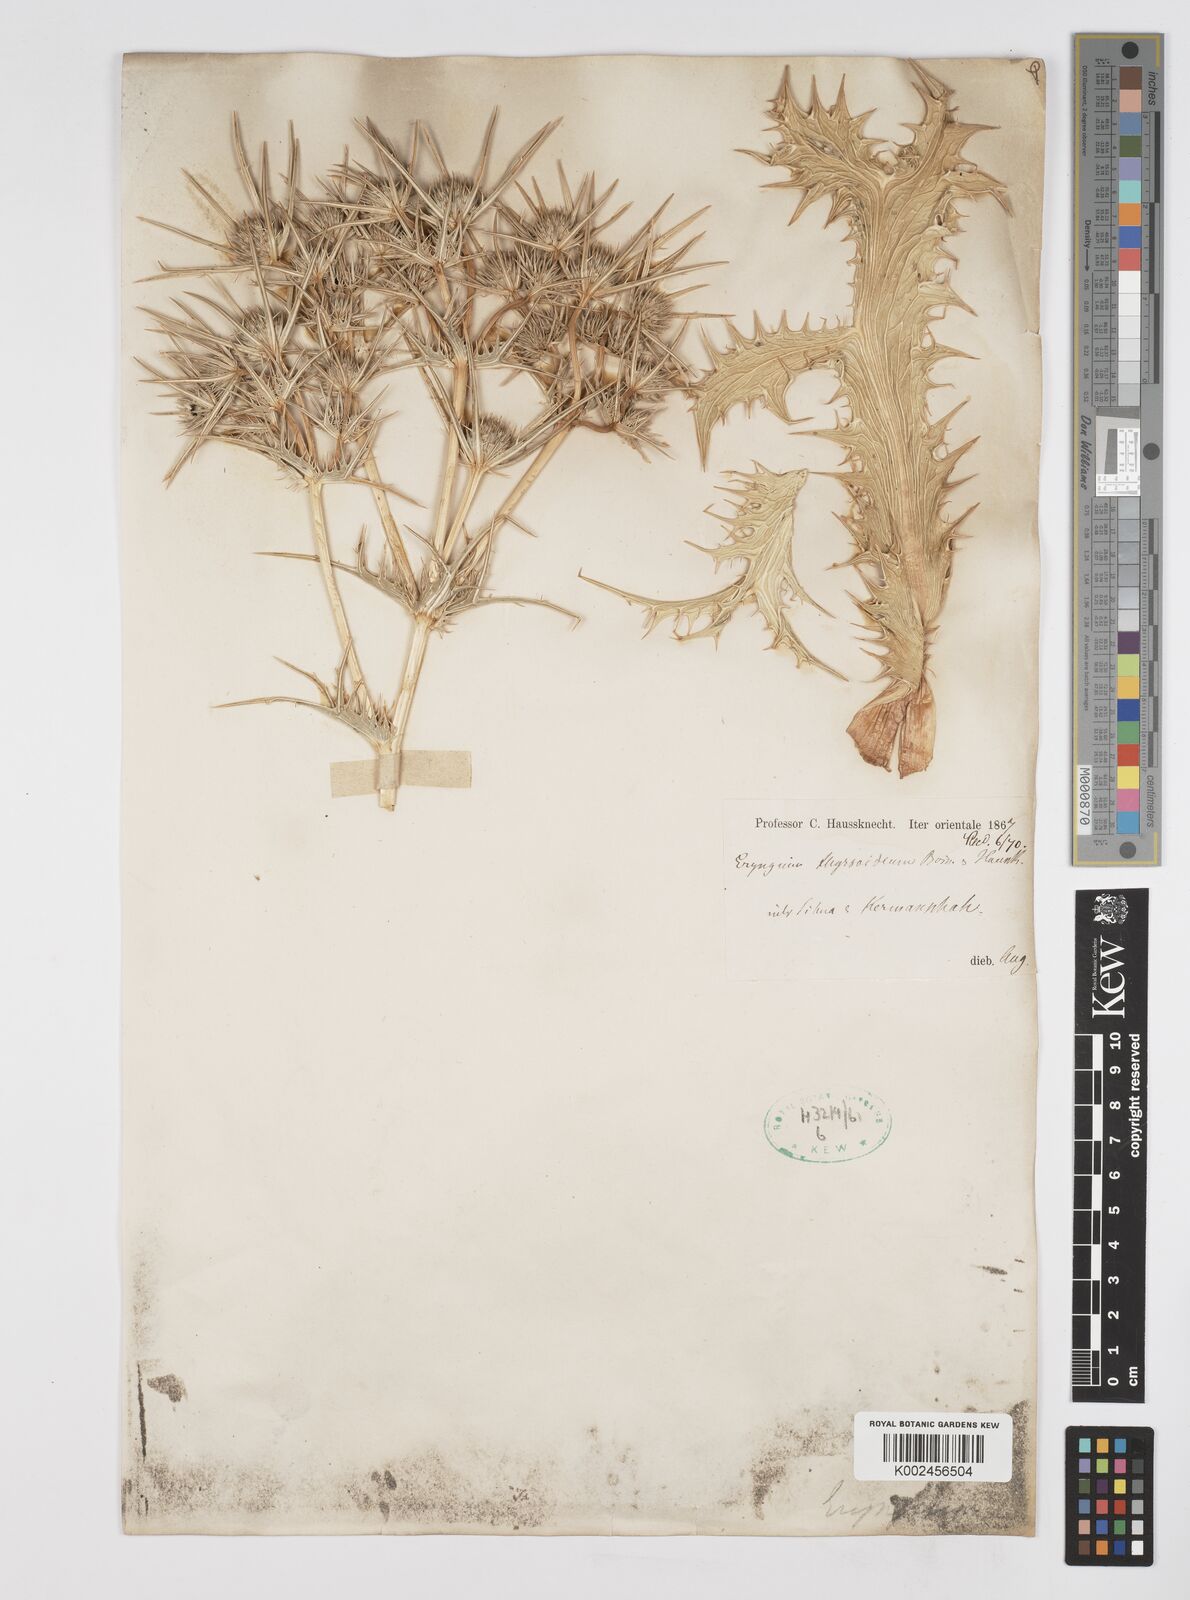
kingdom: Plantae
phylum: Tracheophyta
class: Magnoliopsida
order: Apiales
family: Apiaceae
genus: Eryngium
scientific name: Eryngium thyrsoideum
